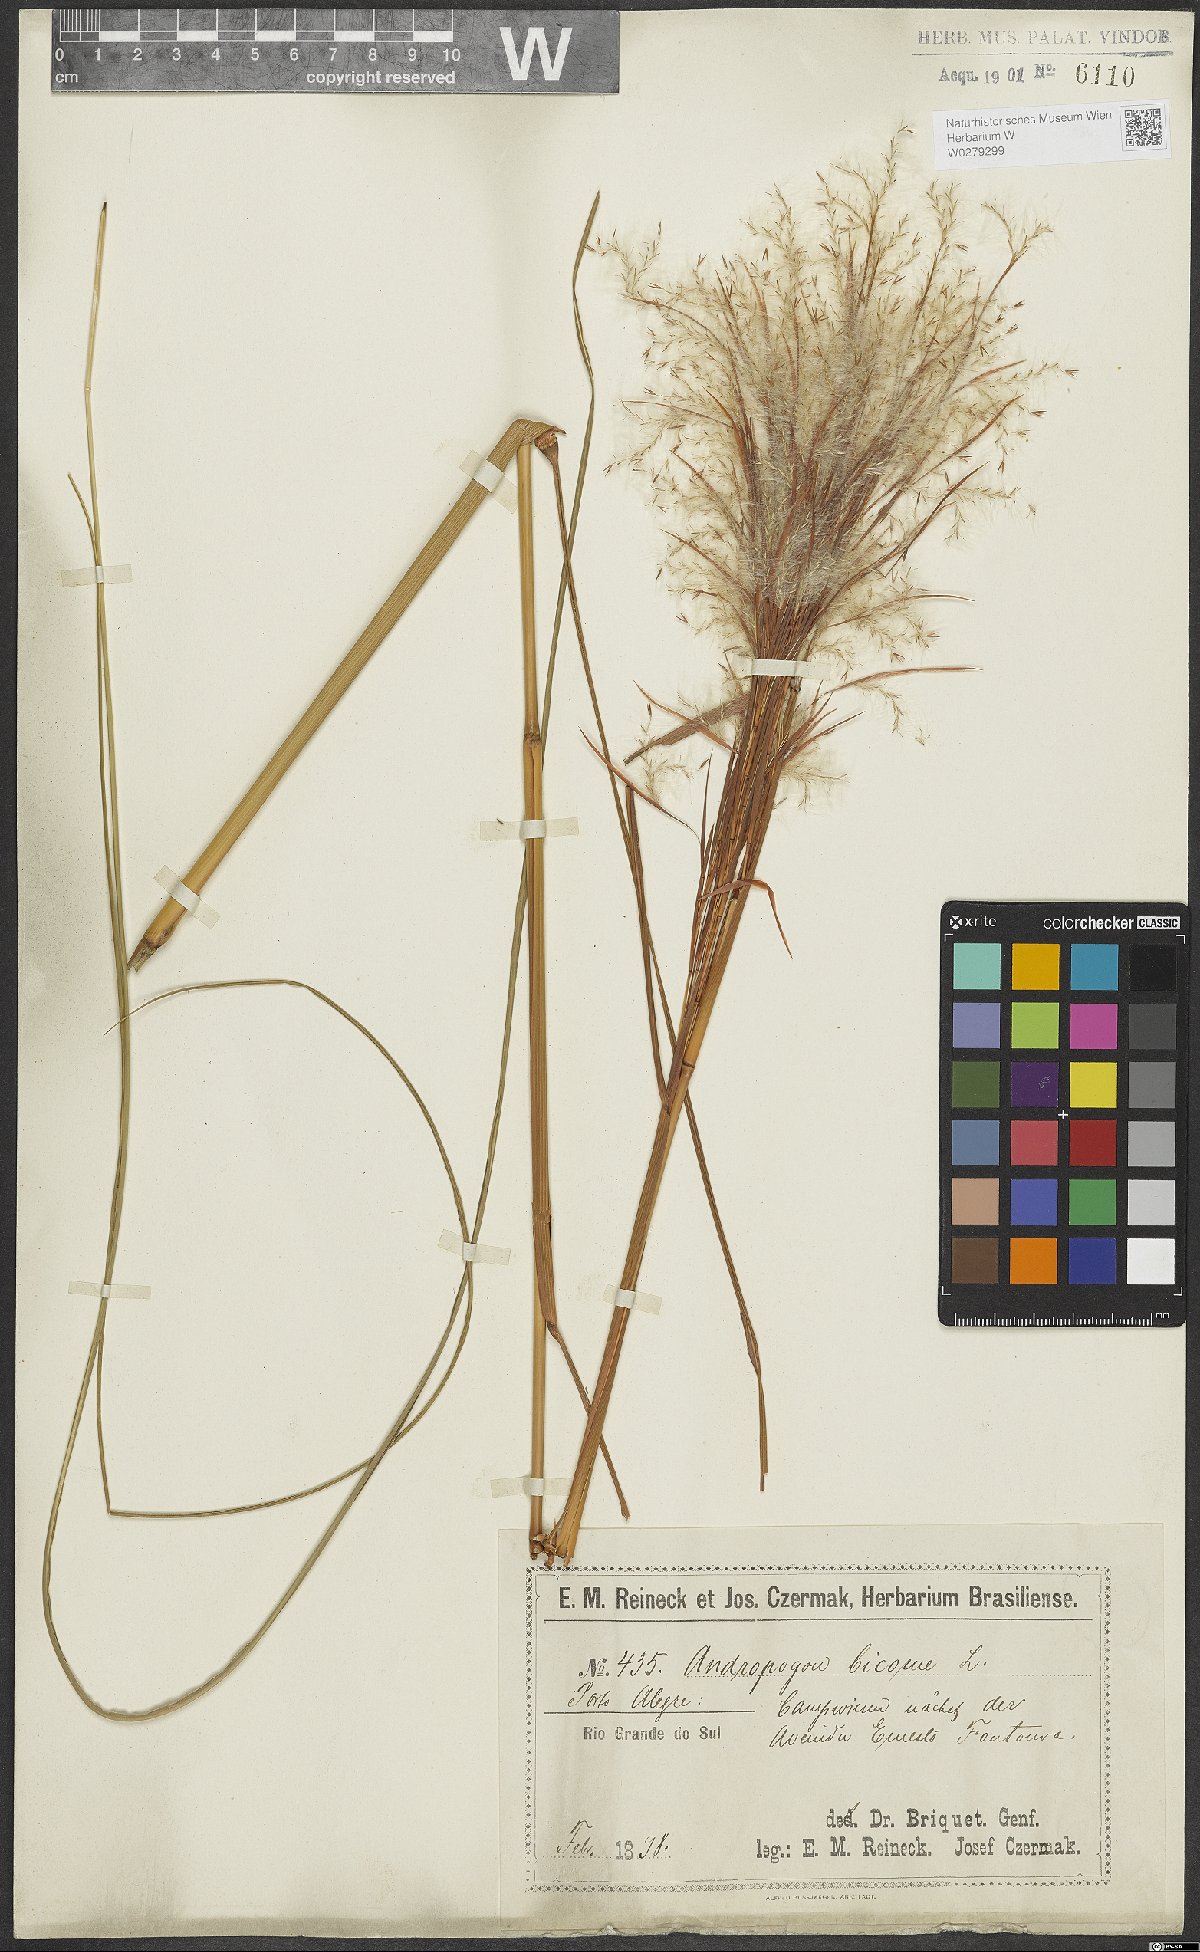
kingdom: Plantae
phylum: Tracheophyta
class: Liliopsida
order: Poales
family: Poaceae
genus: Andropogon
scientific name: Andropogon bicornis
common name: West indian foxtail grass
